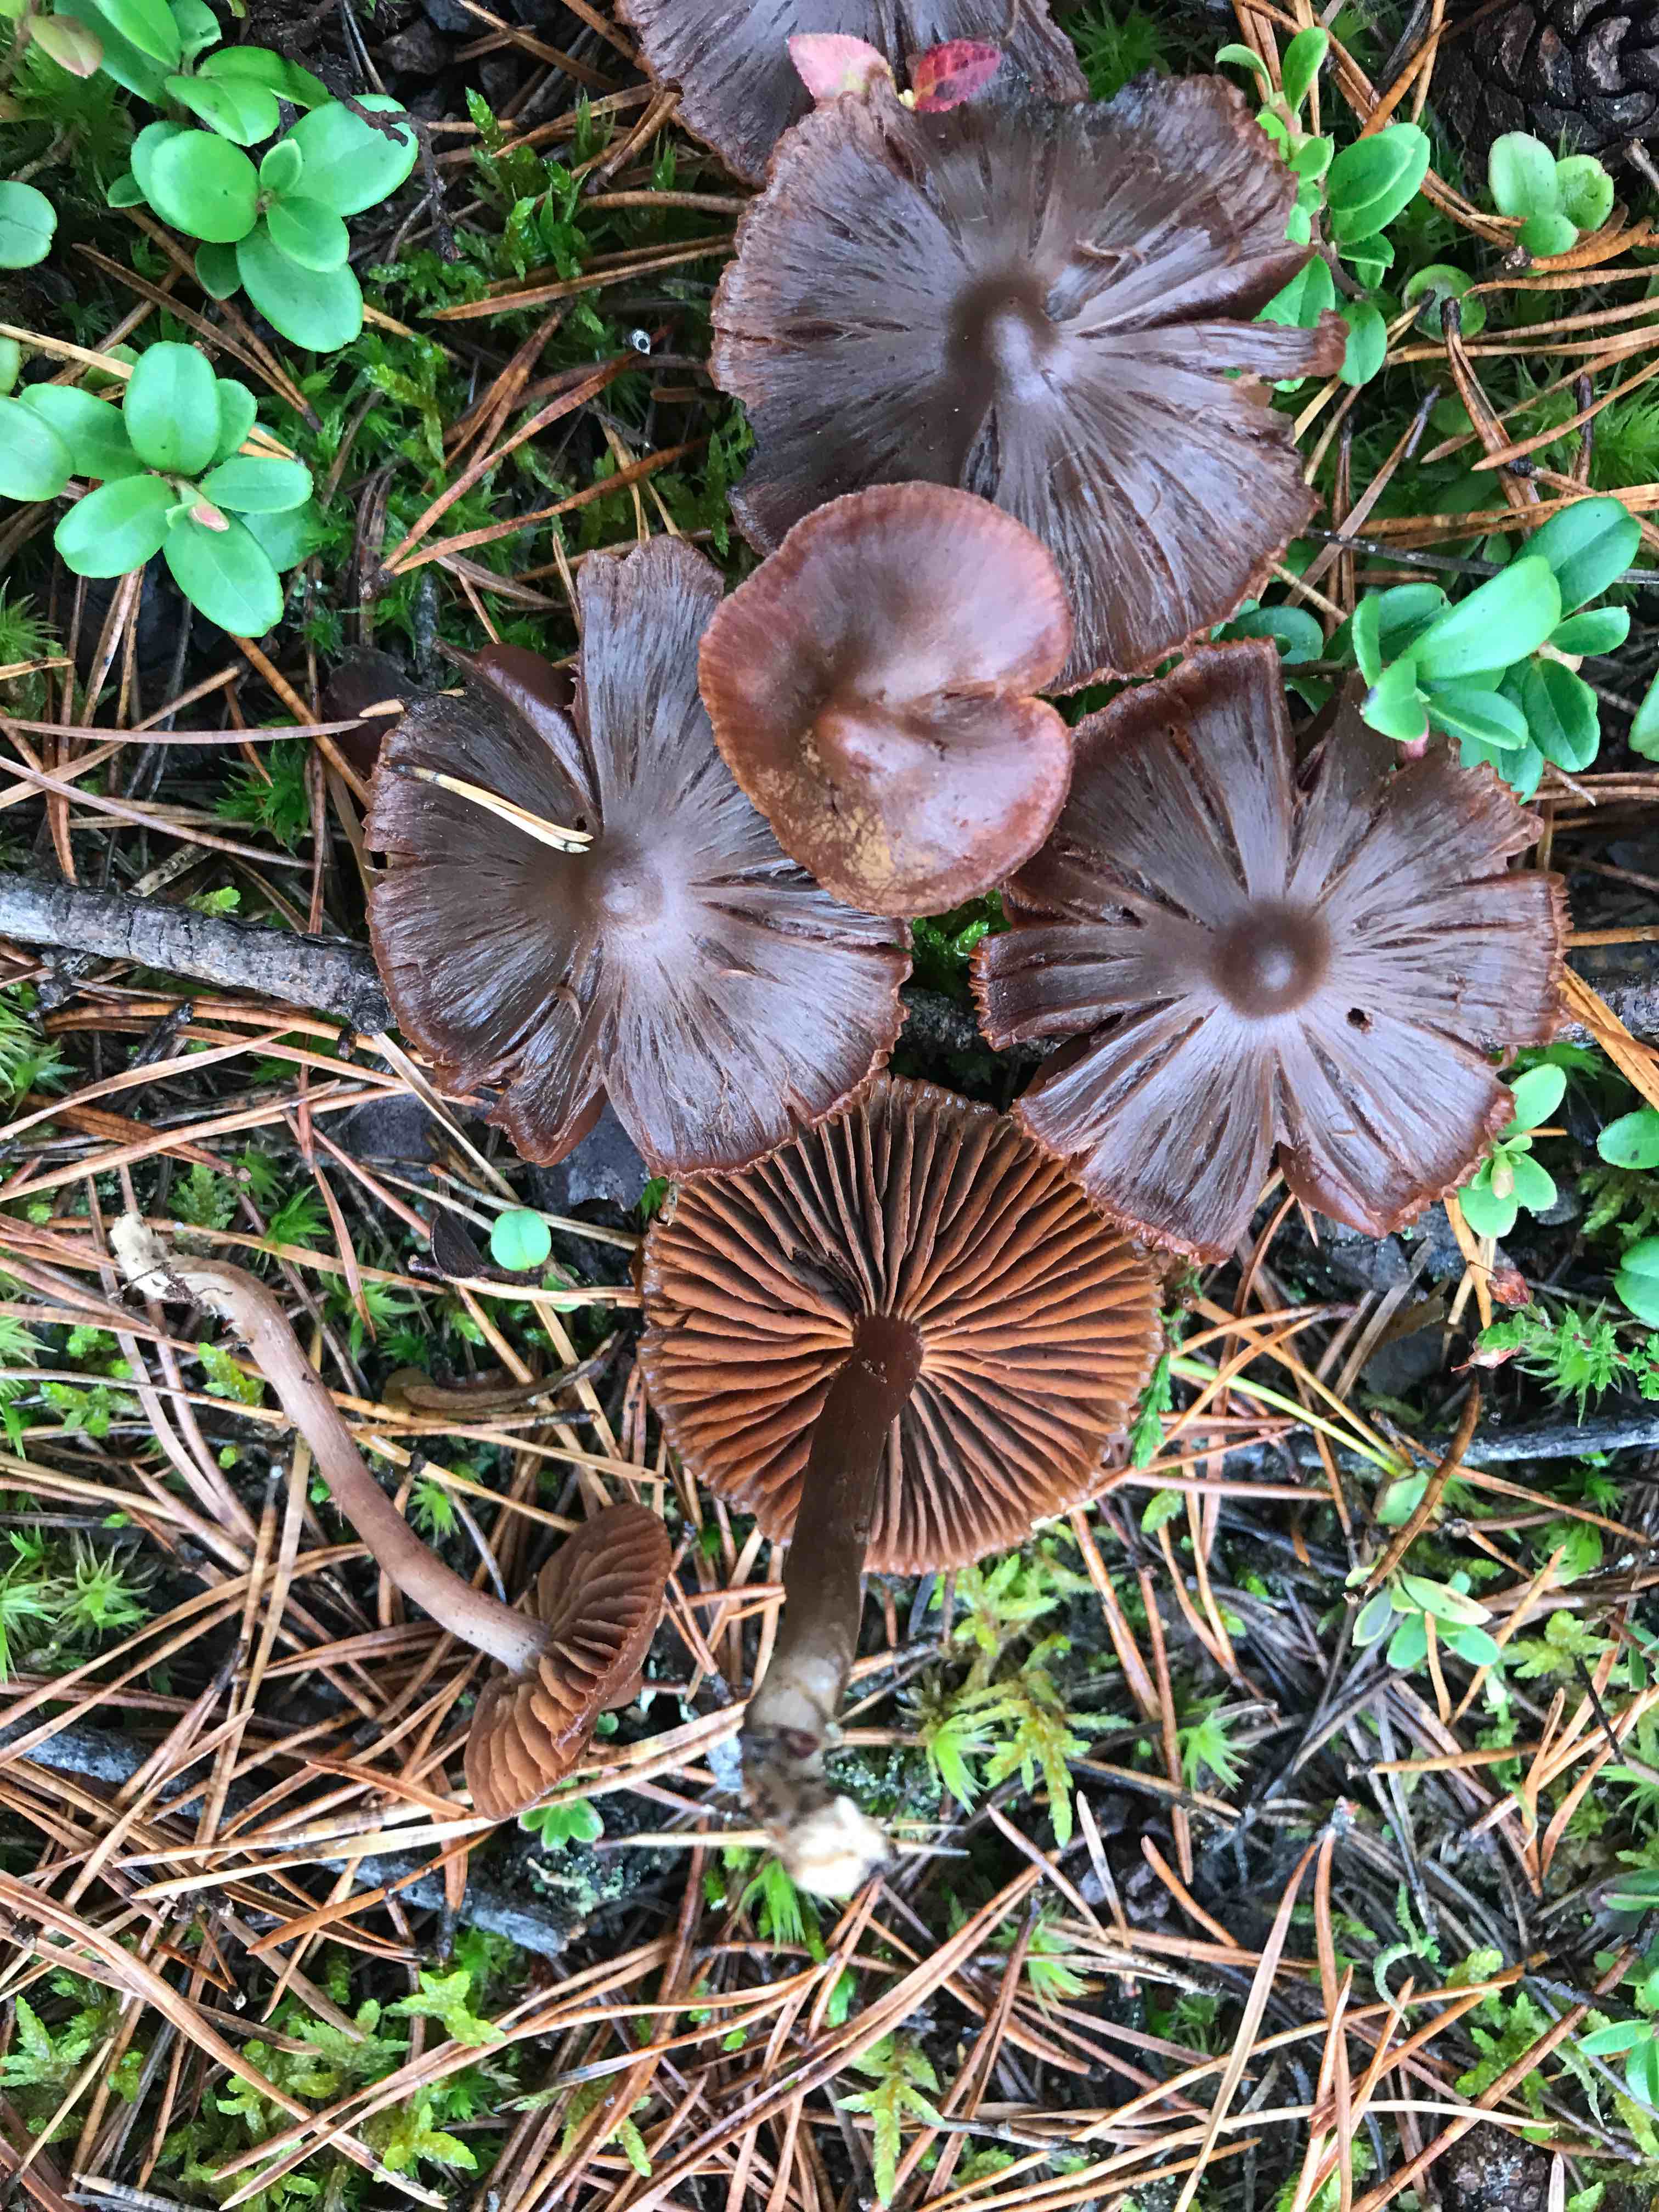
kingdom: Fungi
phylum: Basidiomycota
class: Agaricomycetes
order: Agaricales
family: Cortinariaceae
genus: Cortinarius
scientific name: Cortinarius
